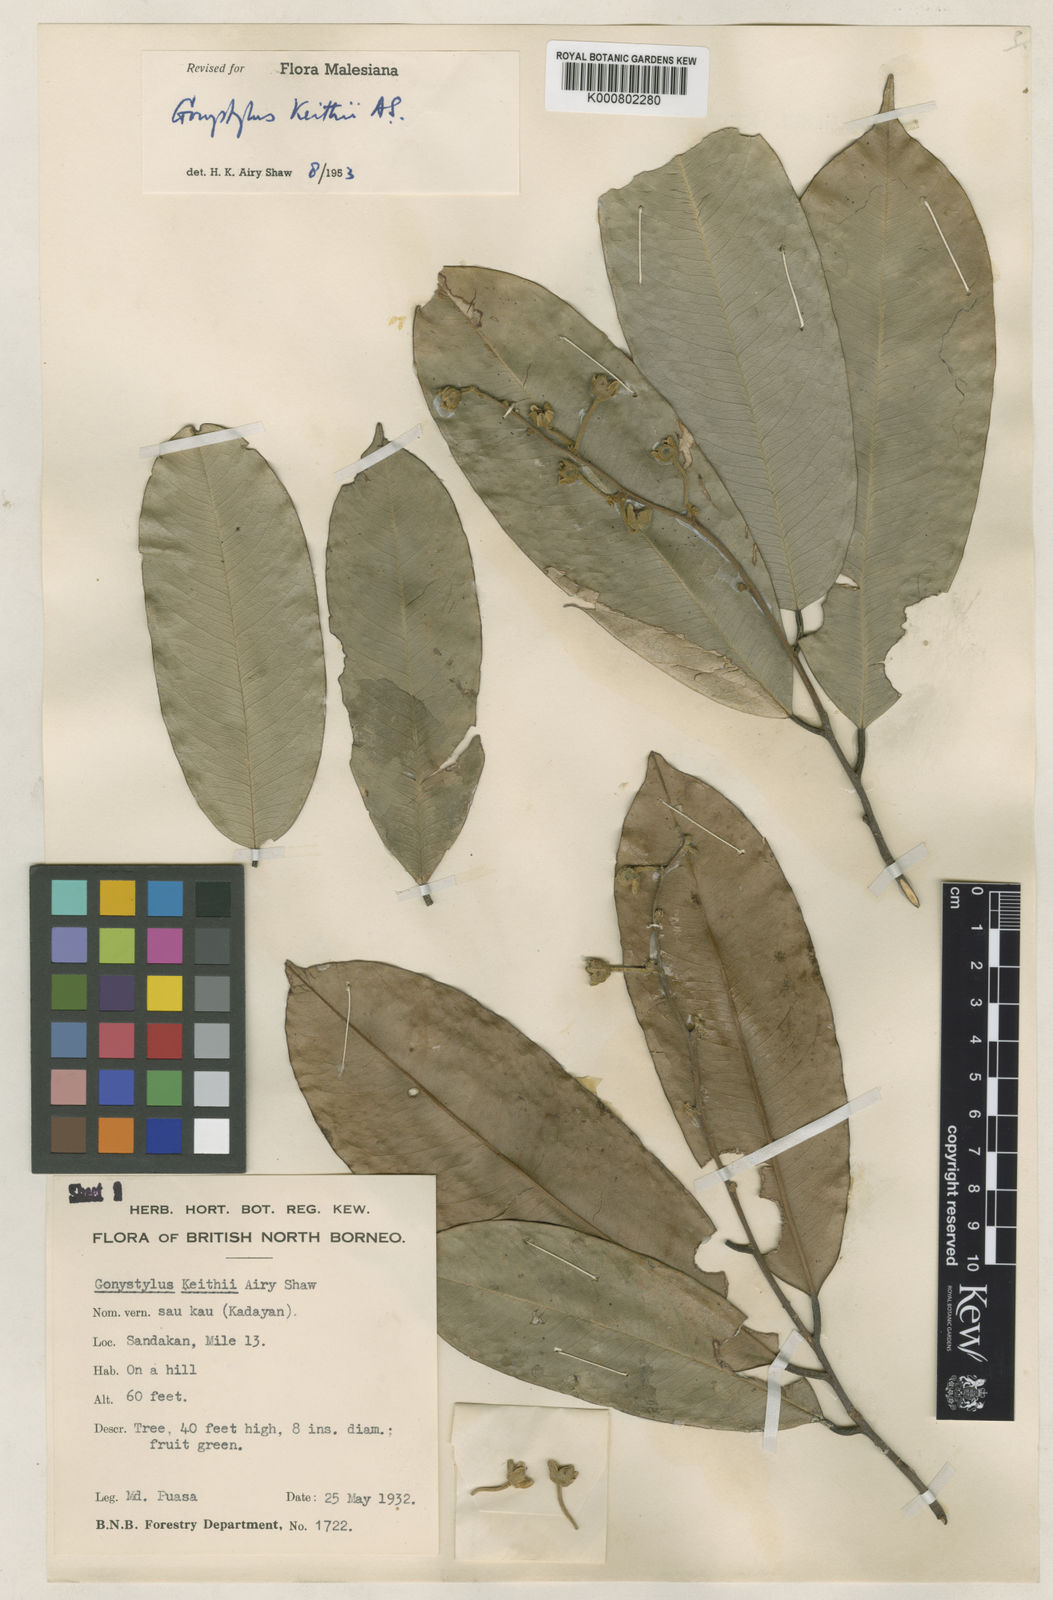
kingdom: Plantae
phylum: Tracheophyta
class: Magnoliopsida
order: Malvales
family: Thymelaeaceae
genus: Gonystylus
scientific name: Gonystylus keithii
